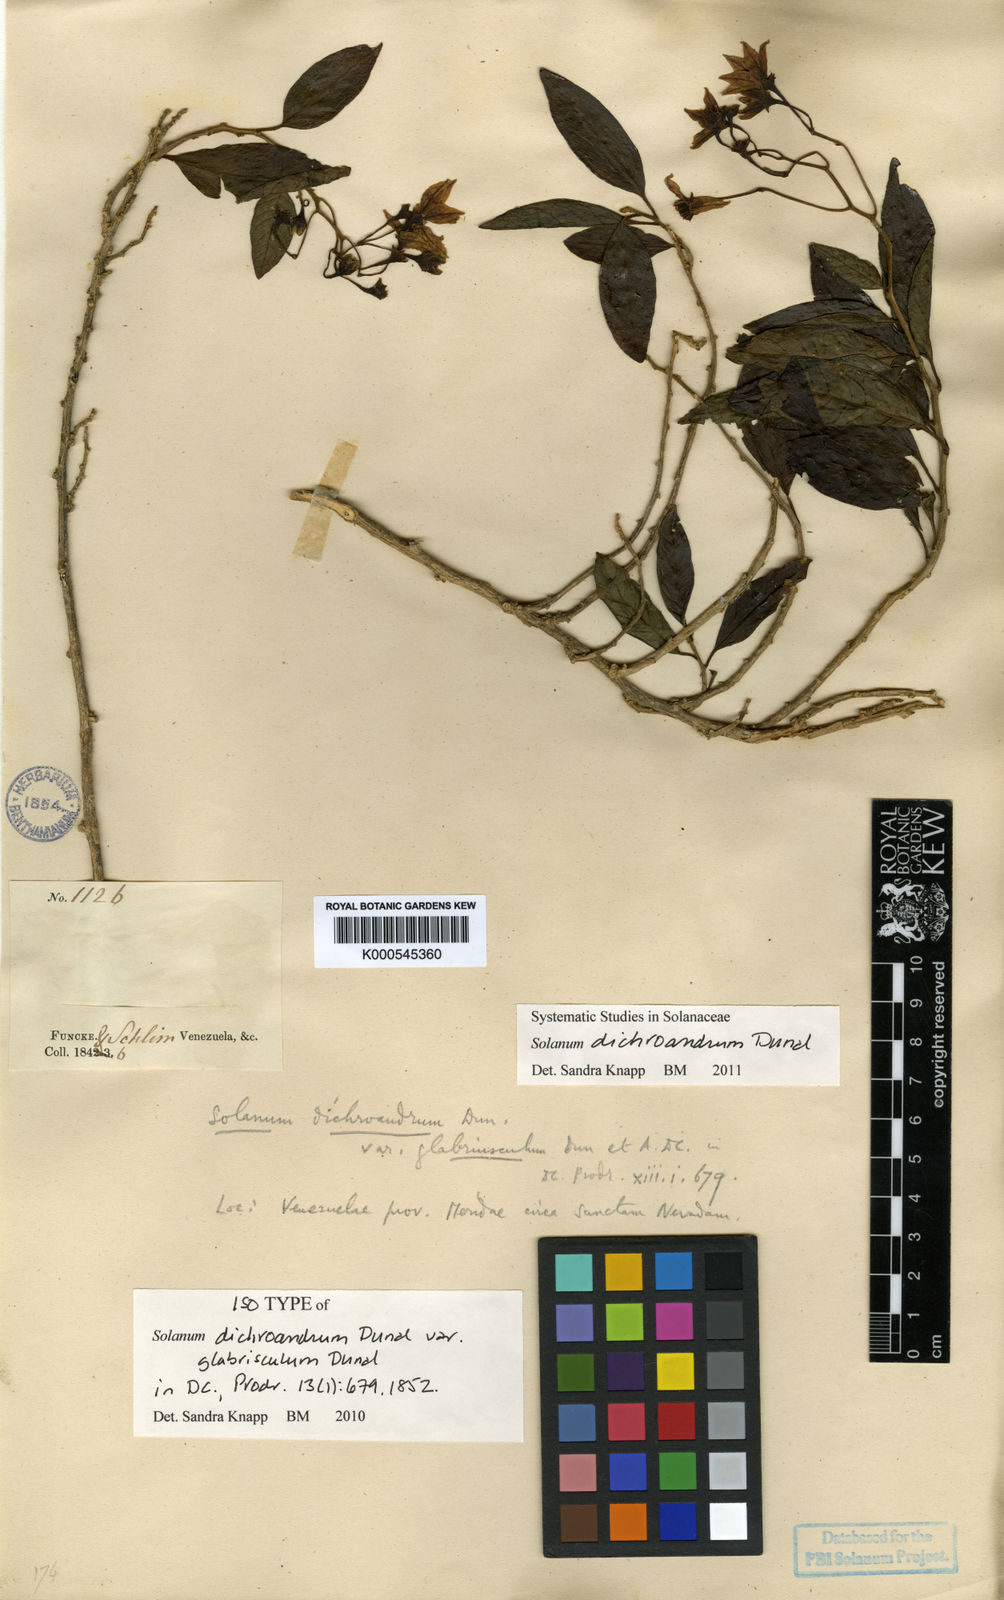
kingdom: Plantae
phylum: Tracheophyta
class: Magnoliopsida
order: Solanales
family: Solanaceae
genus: Solanum
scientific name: Solanum dichroandrum
